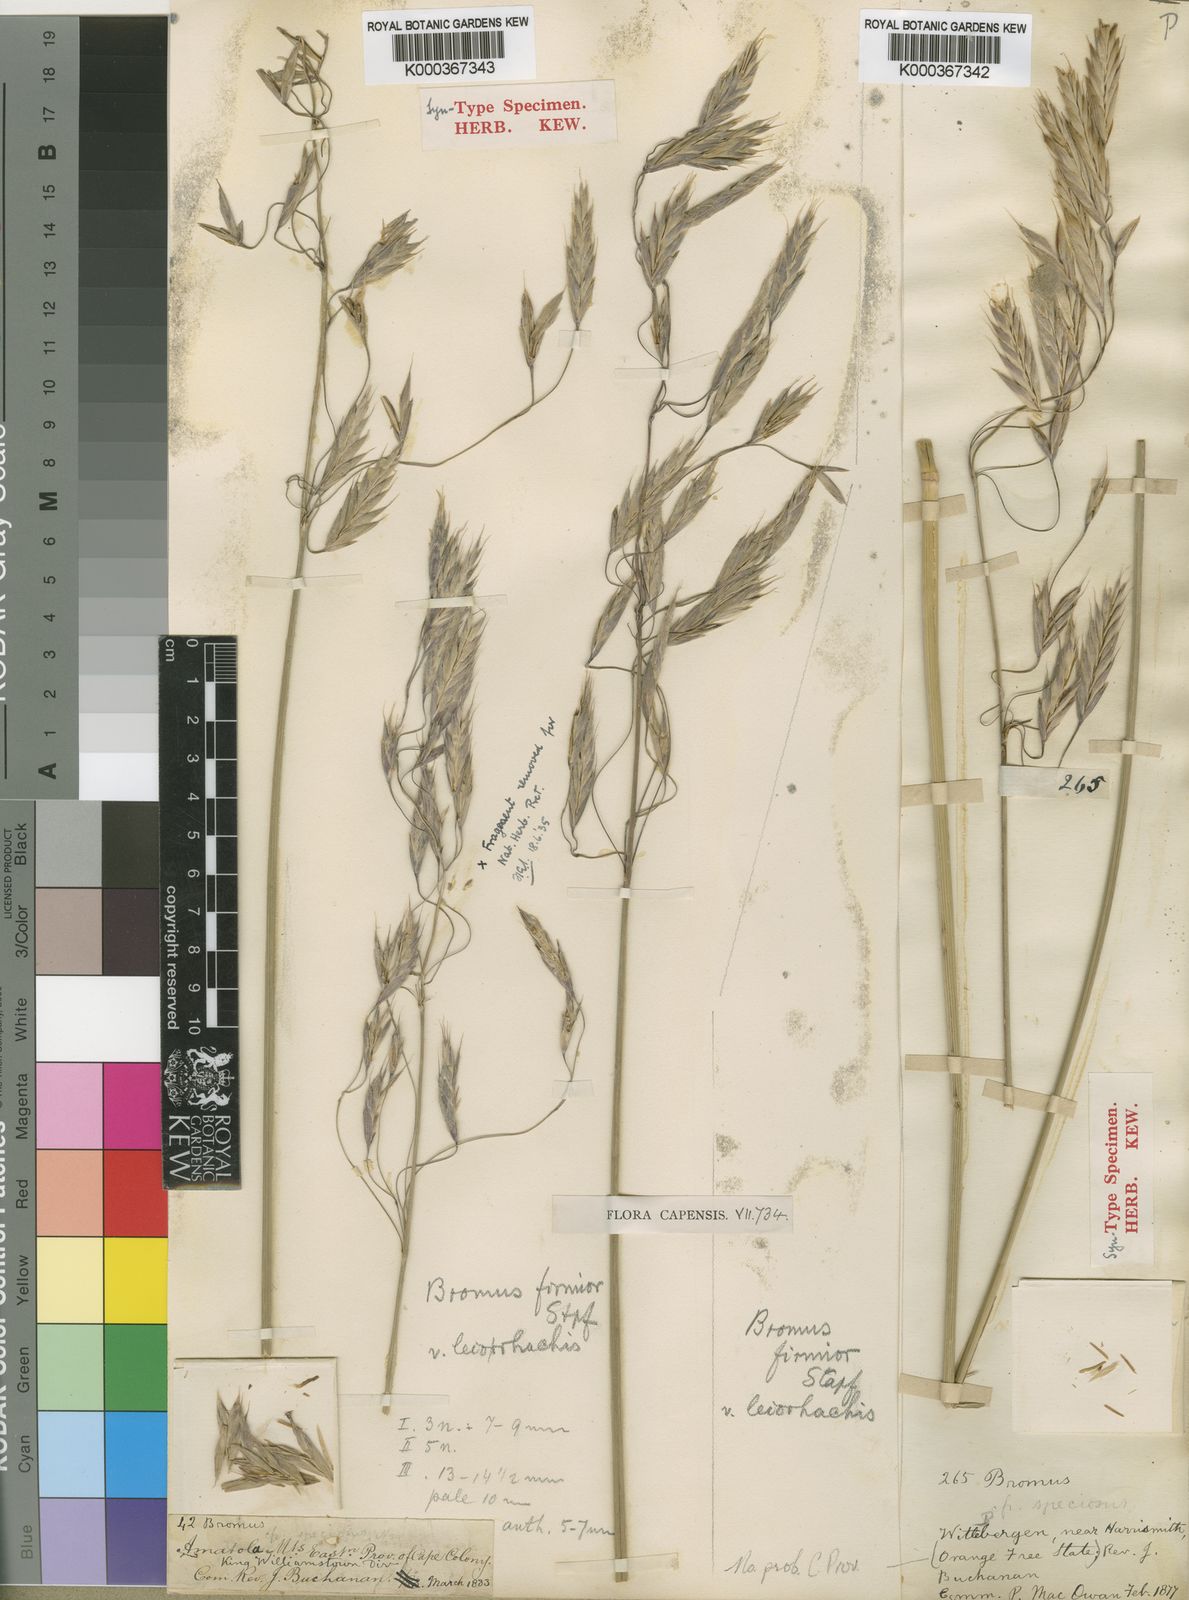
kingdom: Plantae
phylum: Tracheophyta
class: Liliopsida
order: Poales
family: Poaceae
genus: Bromus
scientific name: Bromus firmior
